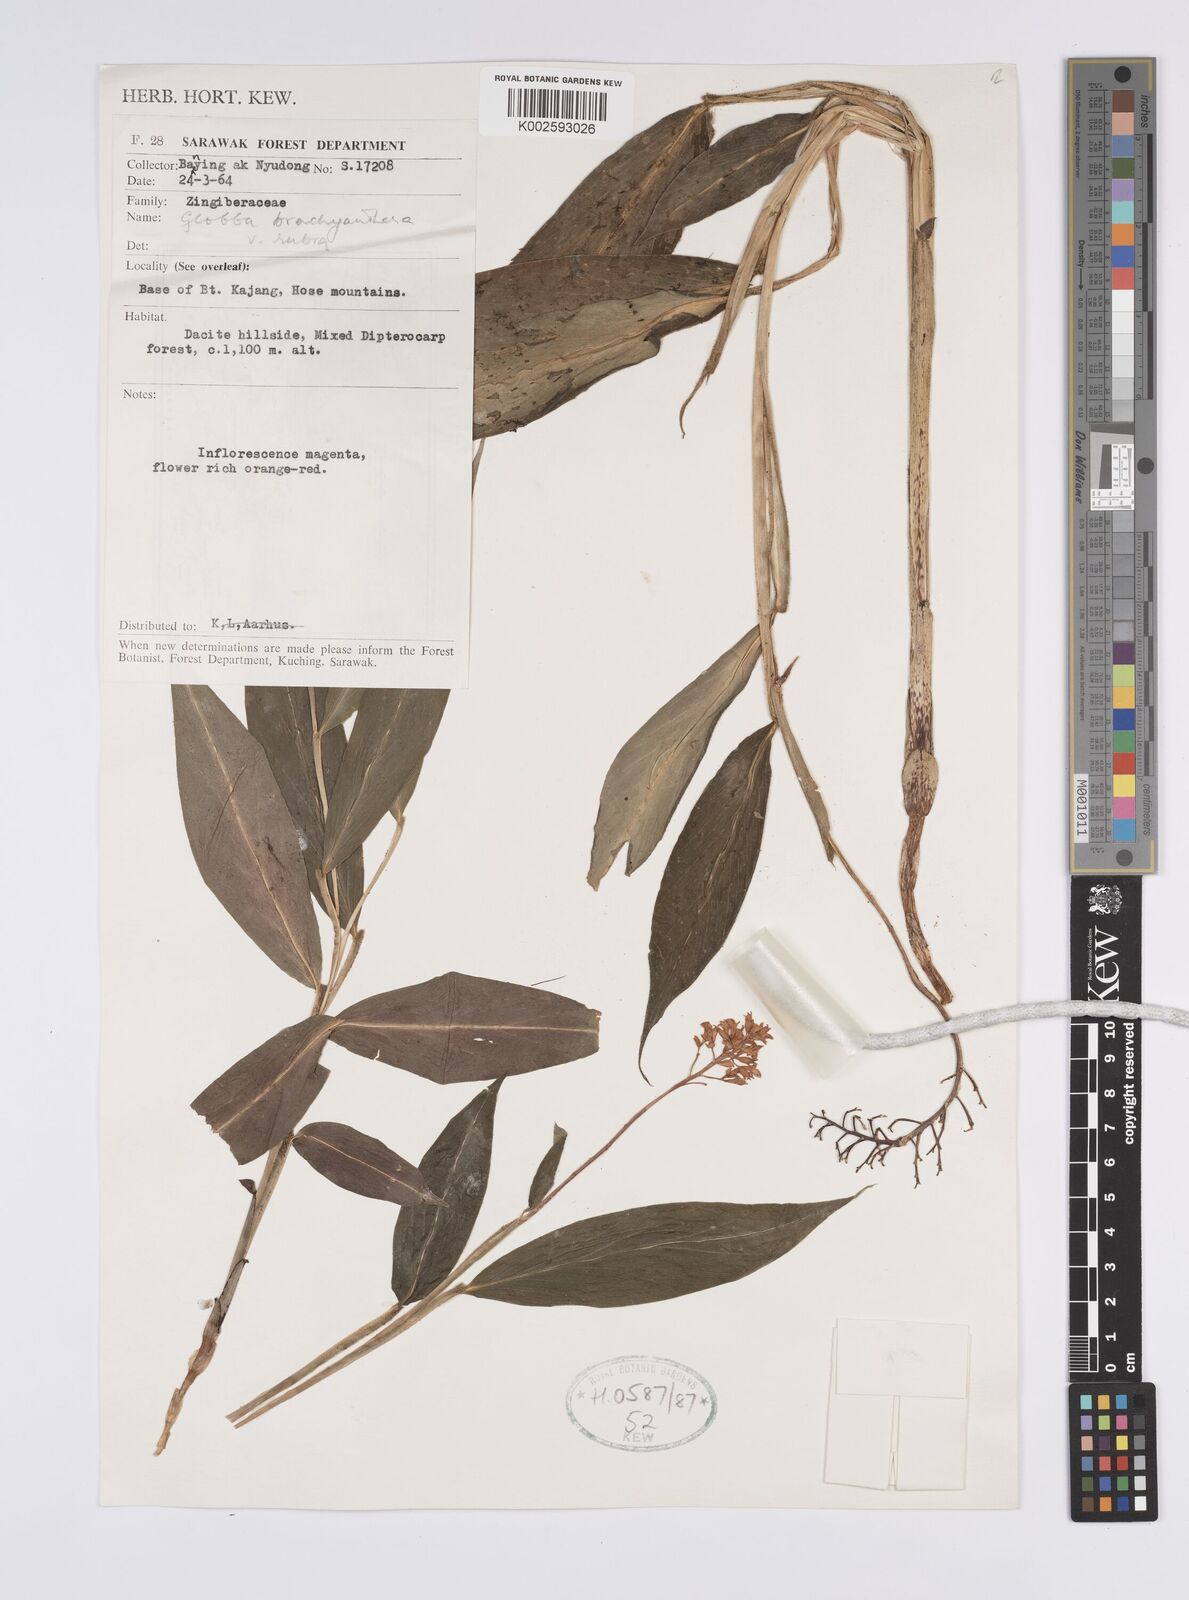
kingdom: Plantae
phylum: Tracheophyta
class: Liliopsida
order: Zingiberales
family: Zingiberaceae
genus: Globba
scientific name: Globba brachyanthera
